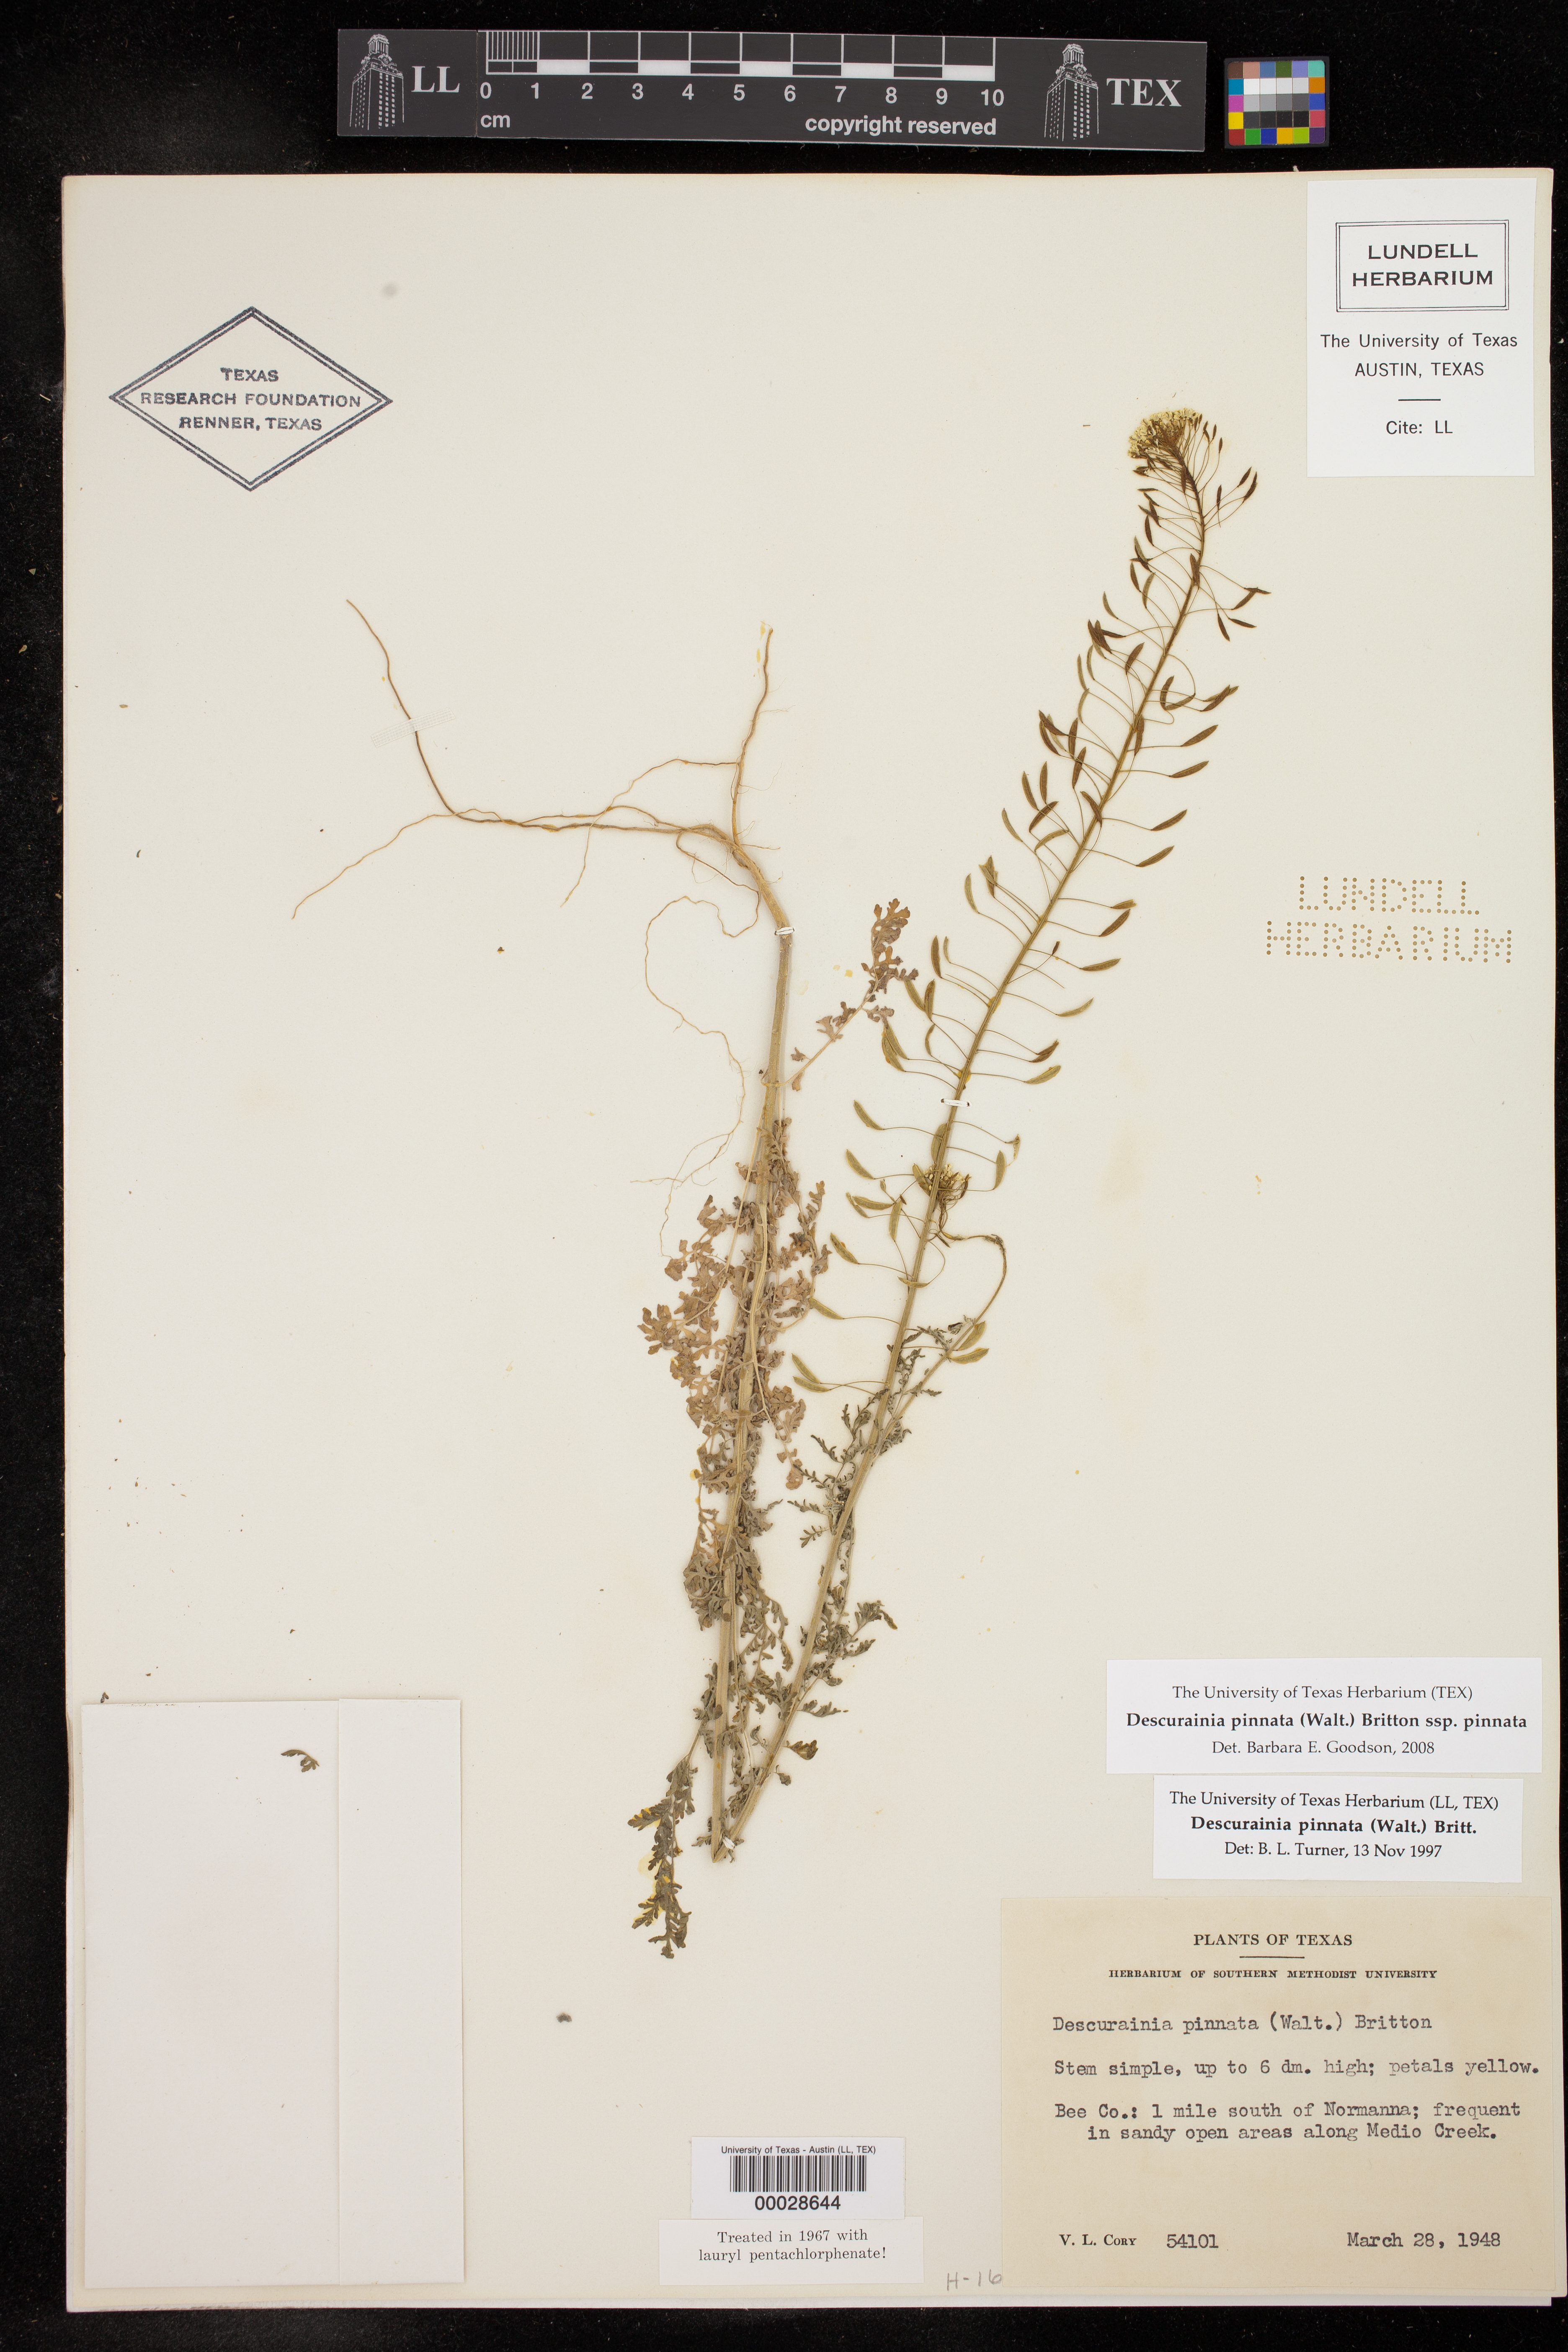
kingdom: Plantae
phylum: Tracheophyta
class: Magnoliopsida
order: Brassicales
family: Brassicaceae
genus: Descurainia
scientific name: Descurainia pinnata
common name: Western tansy mustard
